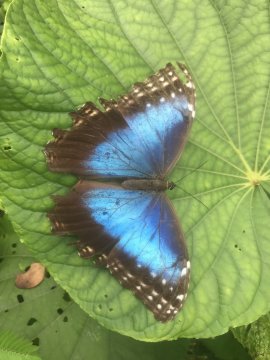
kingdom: Animalia
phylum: Arthropoda
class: Insecta
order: Lepidoptera
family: Nymphalidae
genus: Morpho
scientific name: Morpho helenor
